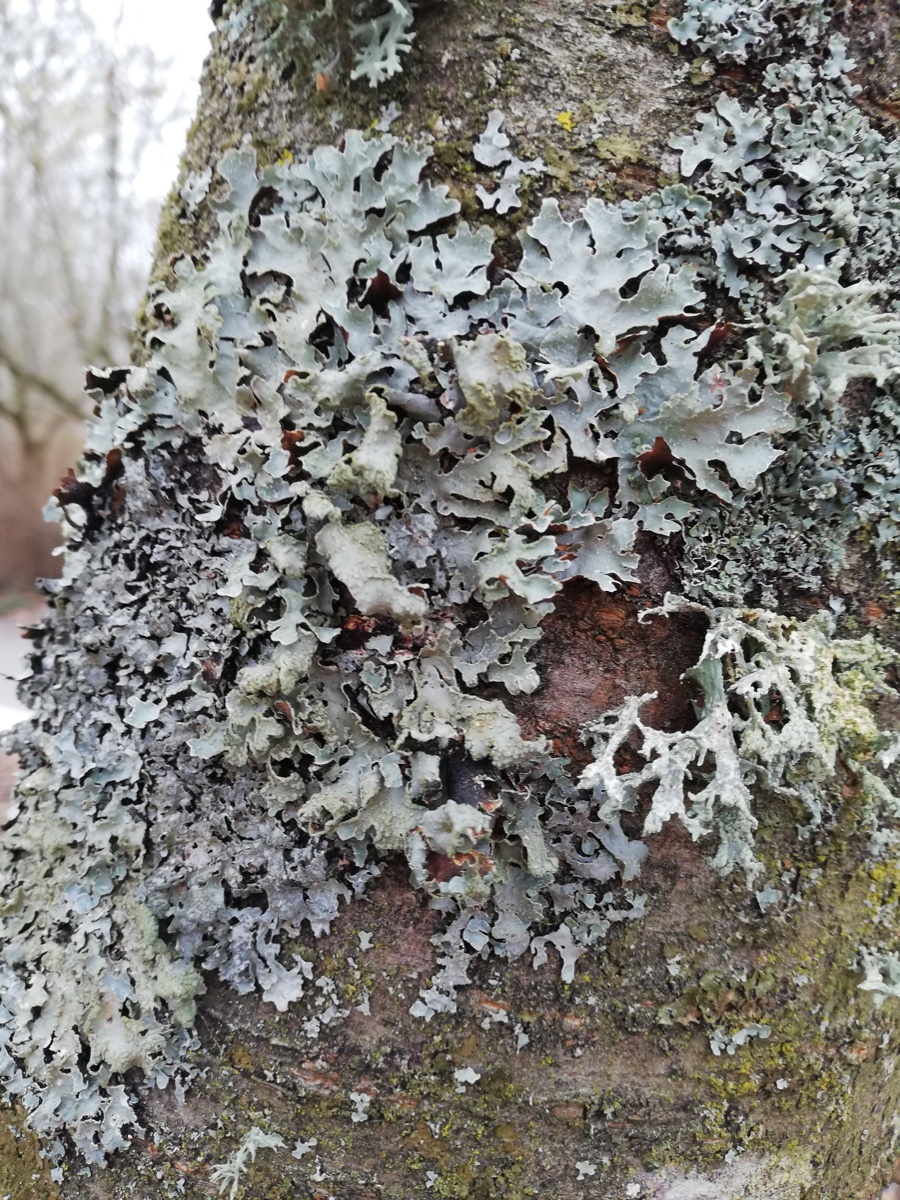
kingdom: Fungi
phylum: Ascomycota
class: Lecanoromycetes
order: Lecanorales
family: Parmeliaceae
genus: Parmelia
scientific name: Parmelia sulcata
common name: rynket skållav
